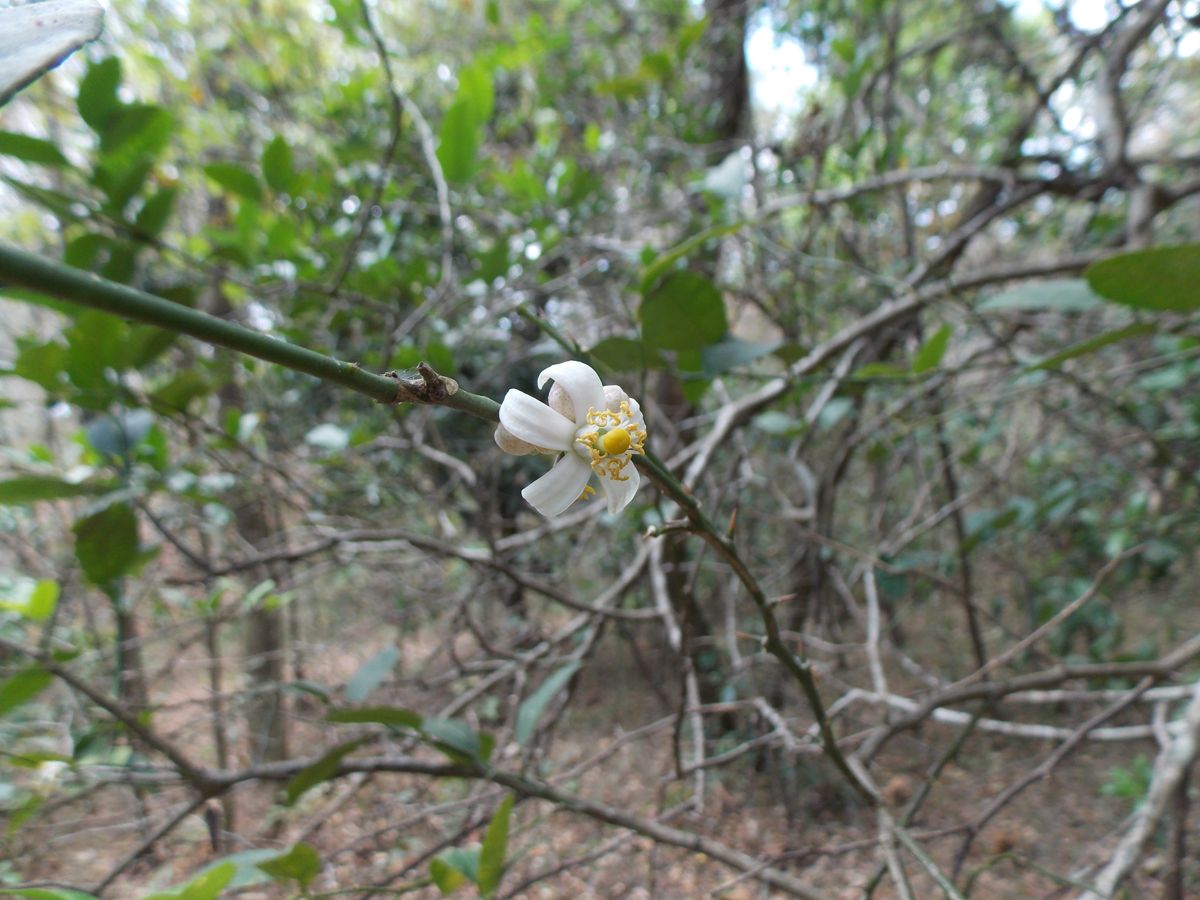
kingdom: Plantae
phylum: Tracheophyta
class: Magnoliopsida
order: Sapindales
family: Rutaceae
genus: Citrus
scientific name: Citrus limon
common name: Lemon
